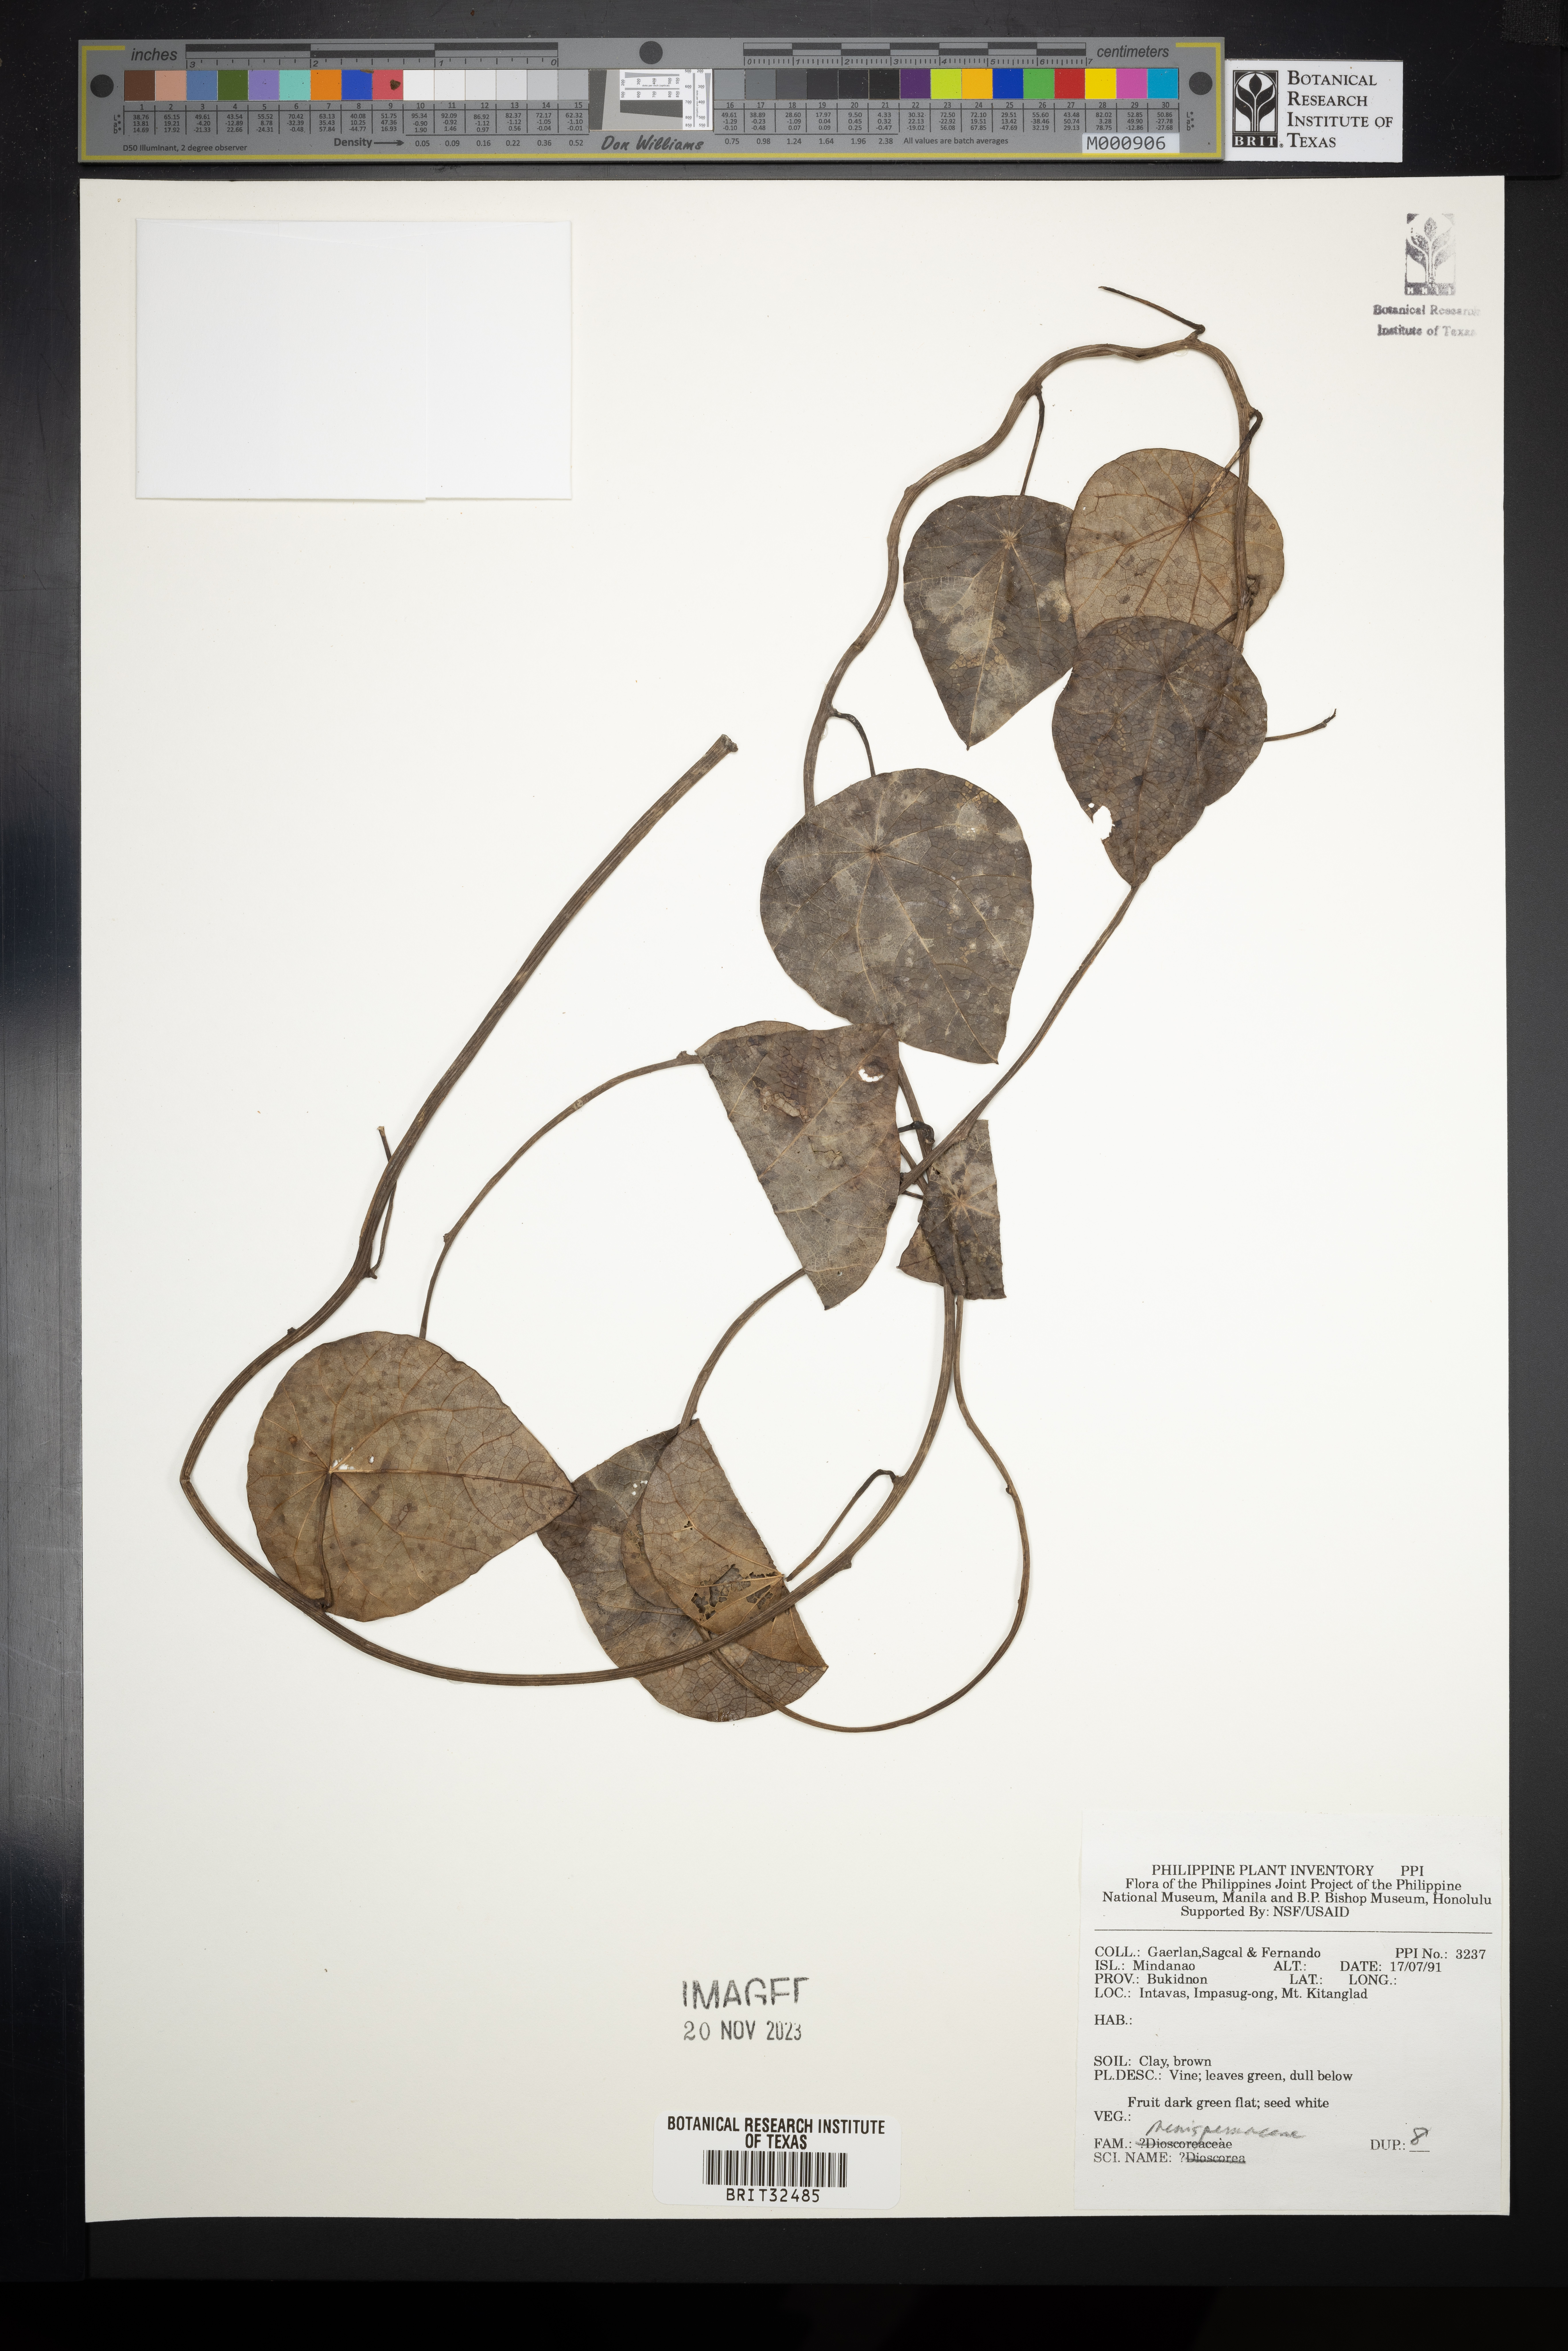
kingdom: Plantae
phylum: Tracheophyta
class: Magnoliopsida
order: Ranunculales
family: Menispermaceae
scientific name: Menispermaceae
